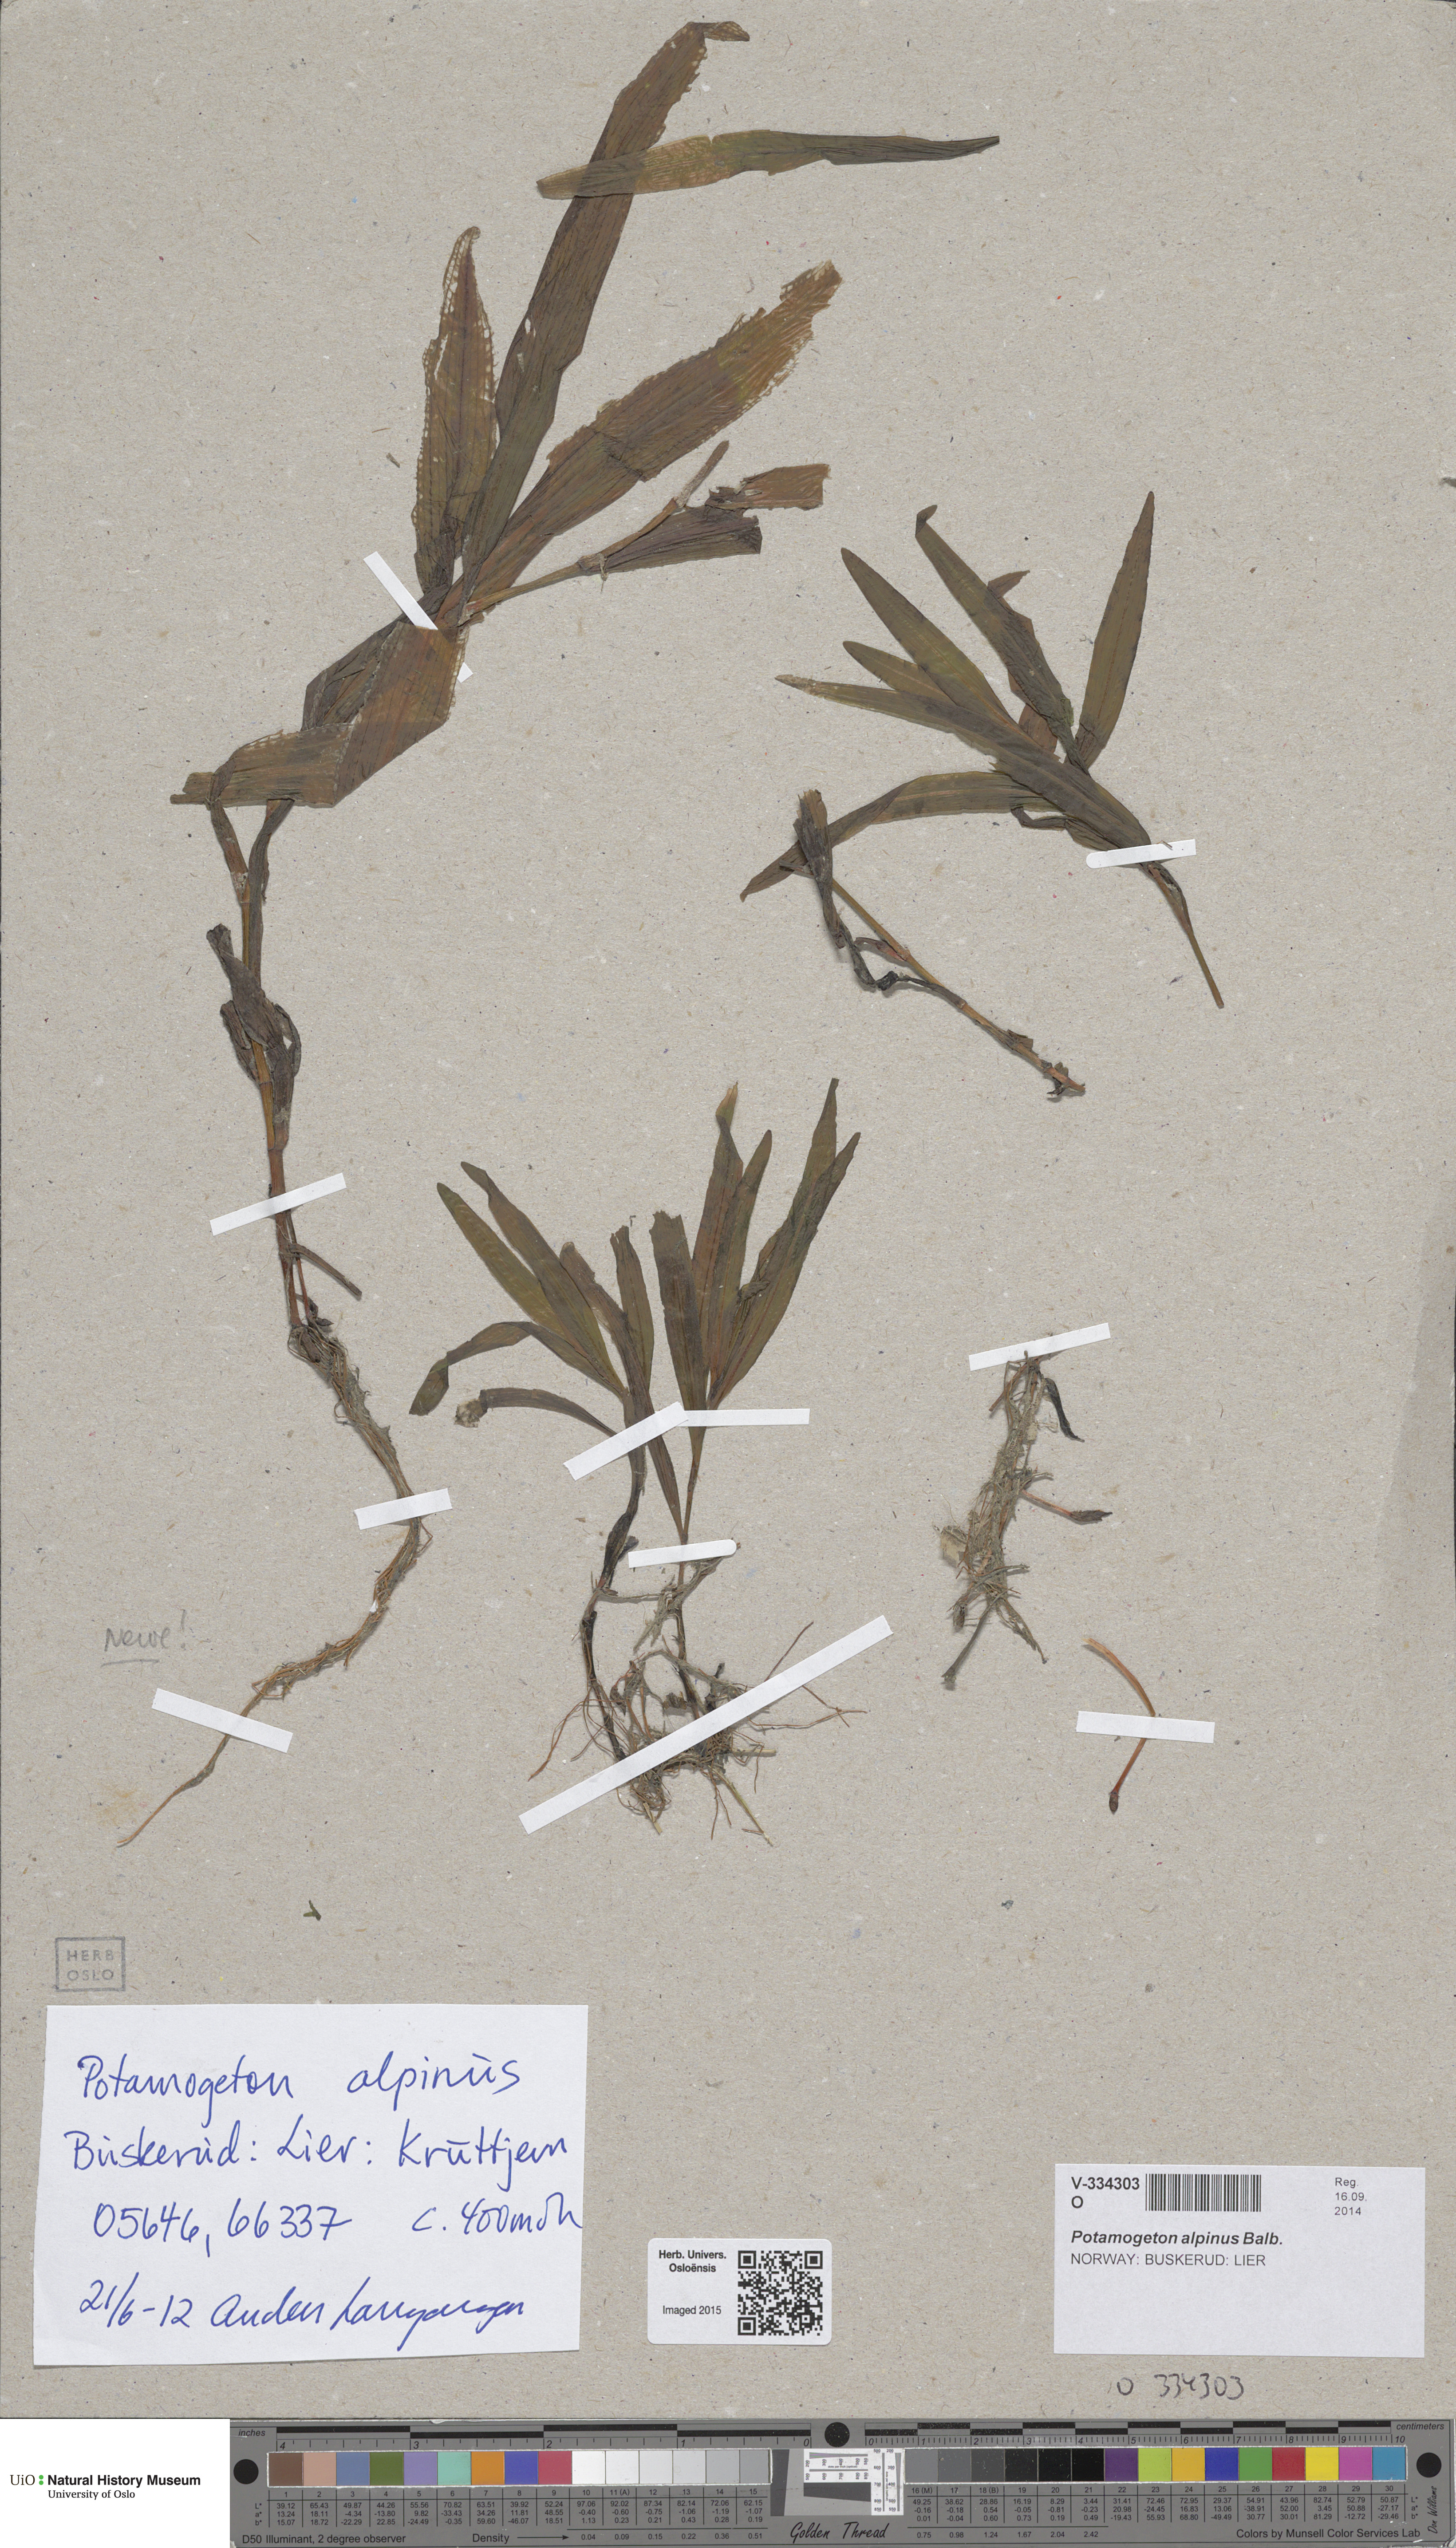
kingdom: Plantae
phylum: Tracheophyta
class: Liliopsida
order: Alismatales
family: Potamogetonaceae
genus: Potamogeton
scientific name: Potamogeton alpinus
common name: Red pondweed
